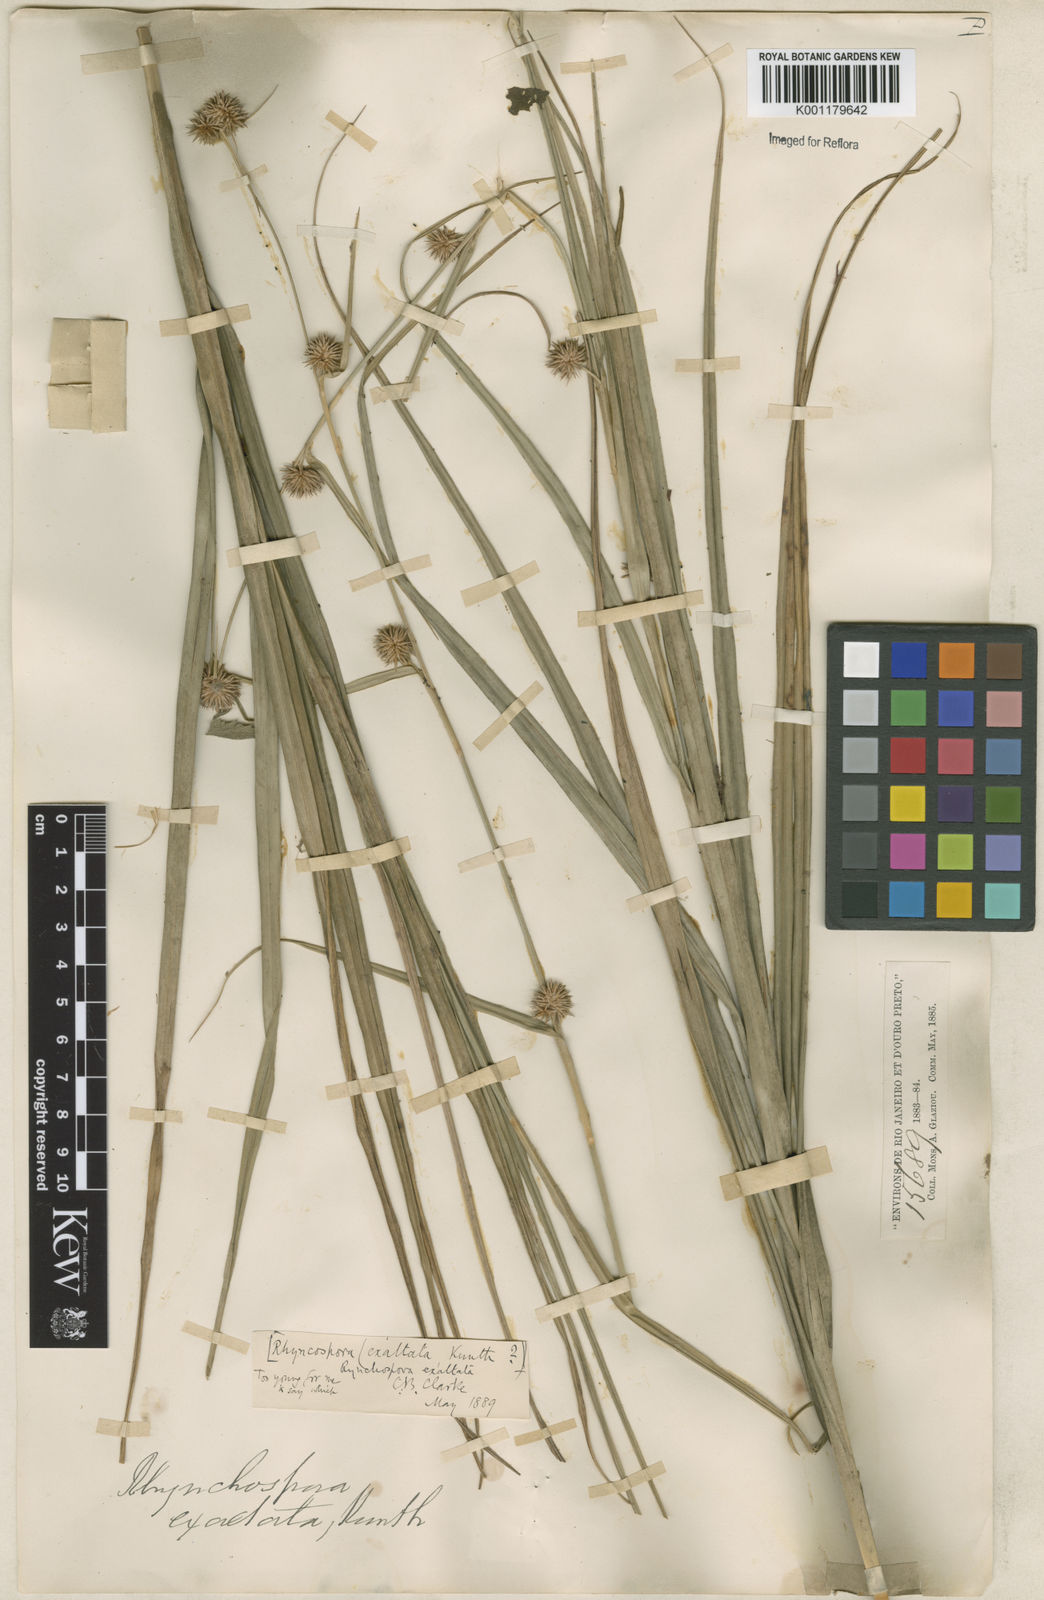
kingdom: Plantae
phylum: Tracheophyta
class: Liliopsida
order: Poales
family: Cyperaceae
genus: Rhynchospora
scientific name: Rhynchospora exaltata
